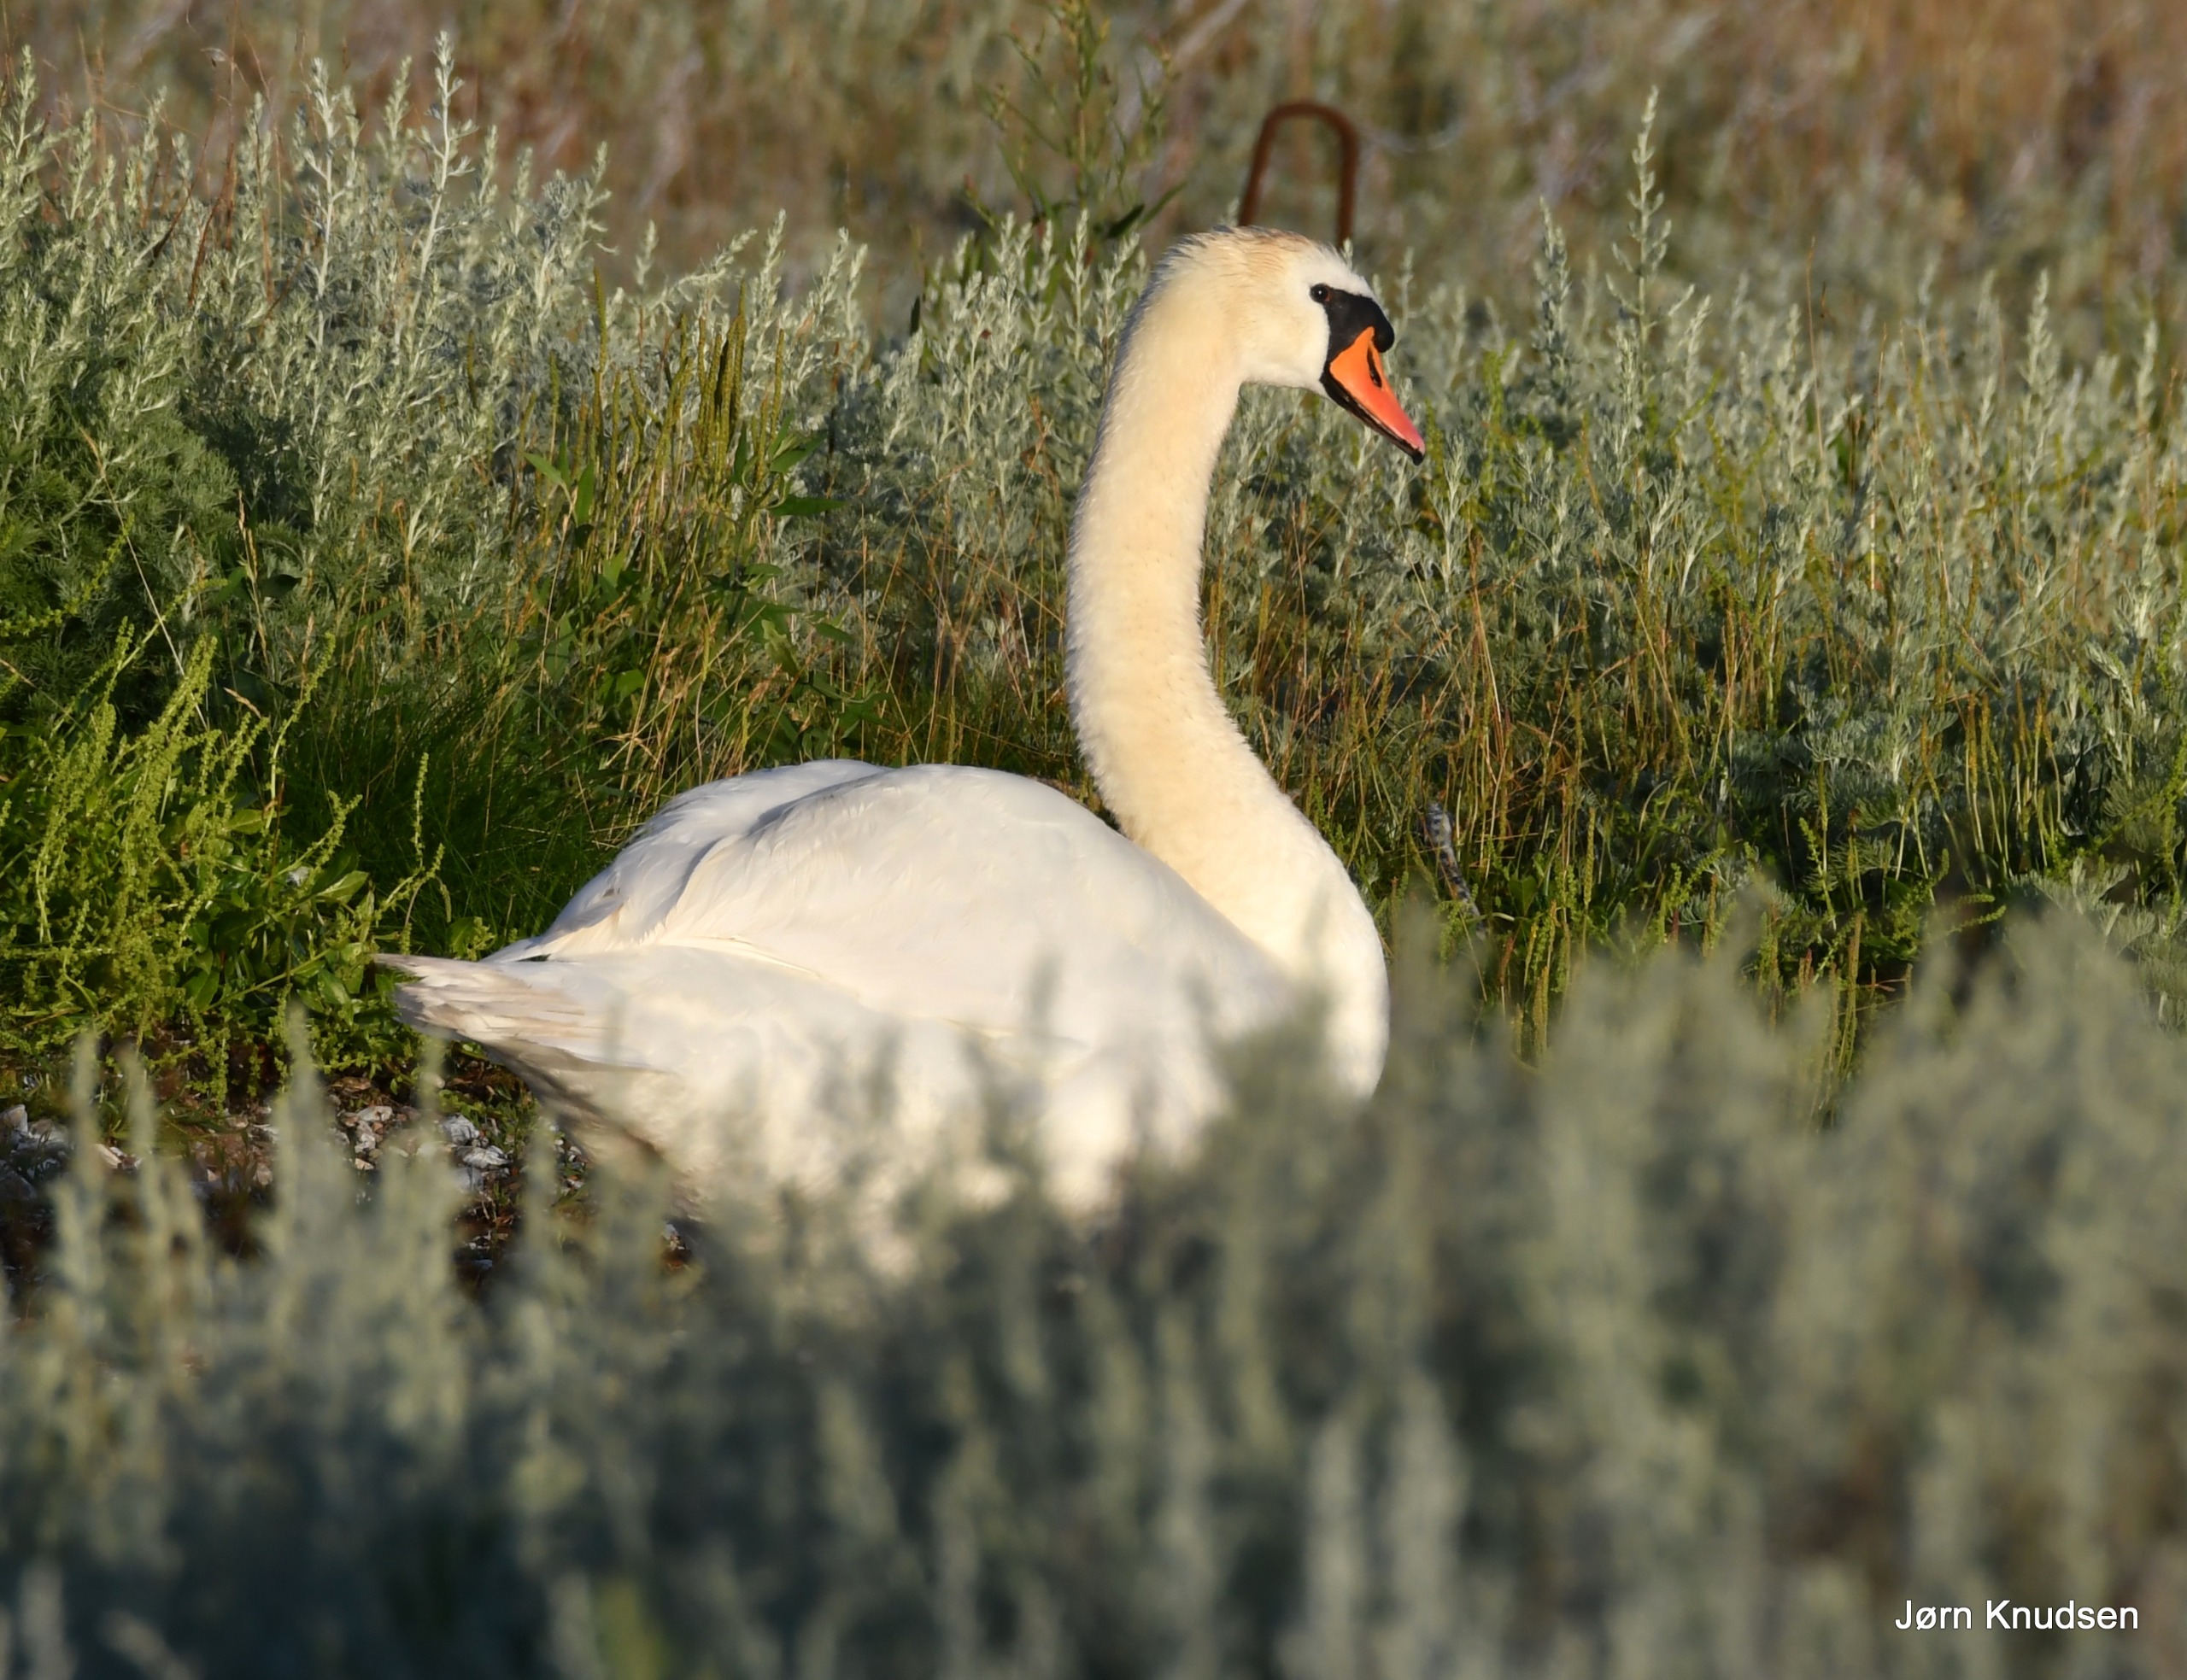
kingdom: Animalia
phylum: Chordata
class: Aves
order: Anseriformes
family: Anatidae
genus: Cygnus
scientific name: Cygnus olor
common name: Knopsvane
